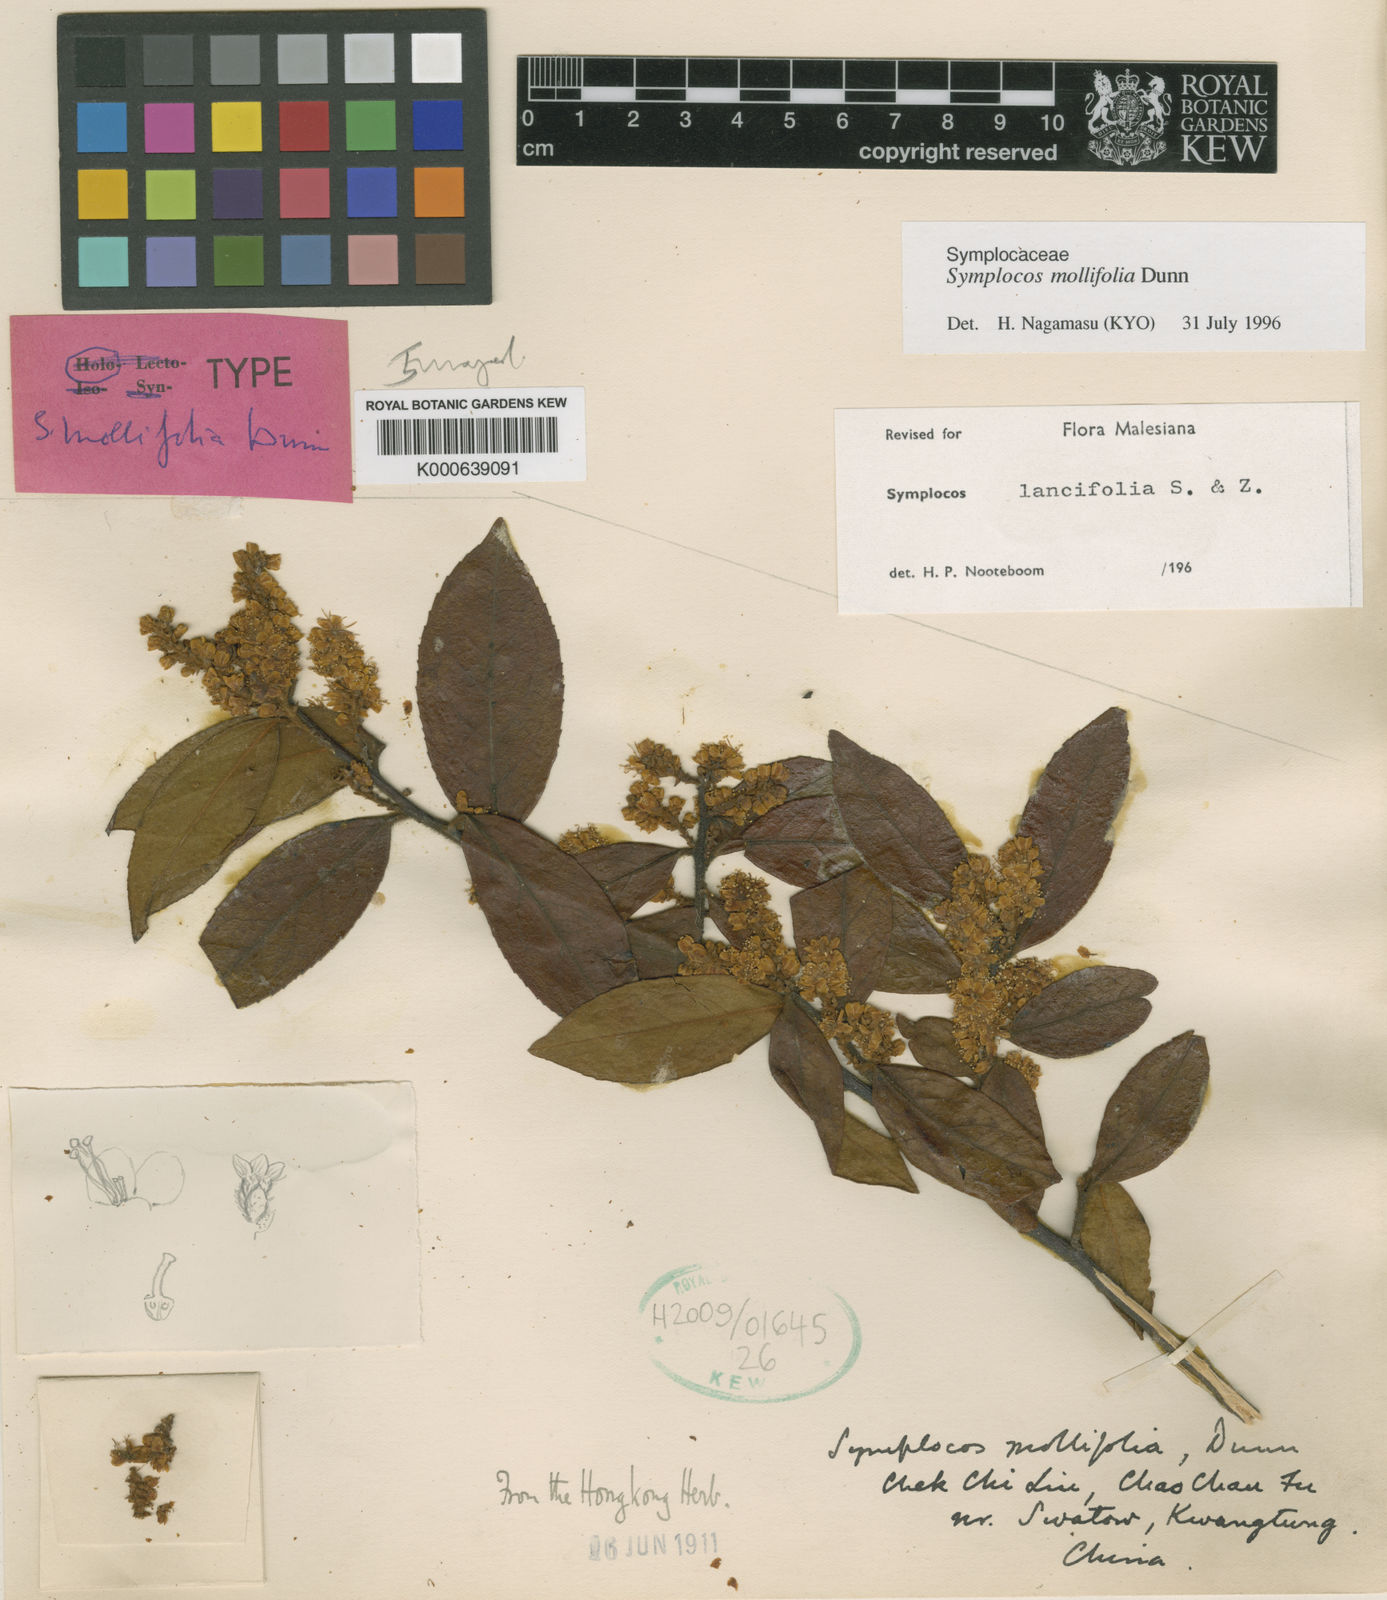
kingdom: Plantae
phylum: Tracheophyta
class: Magnoliopsida
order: Ericales
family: Symplocaceae
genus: Symplocos
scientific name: Symplocos lancifolia
